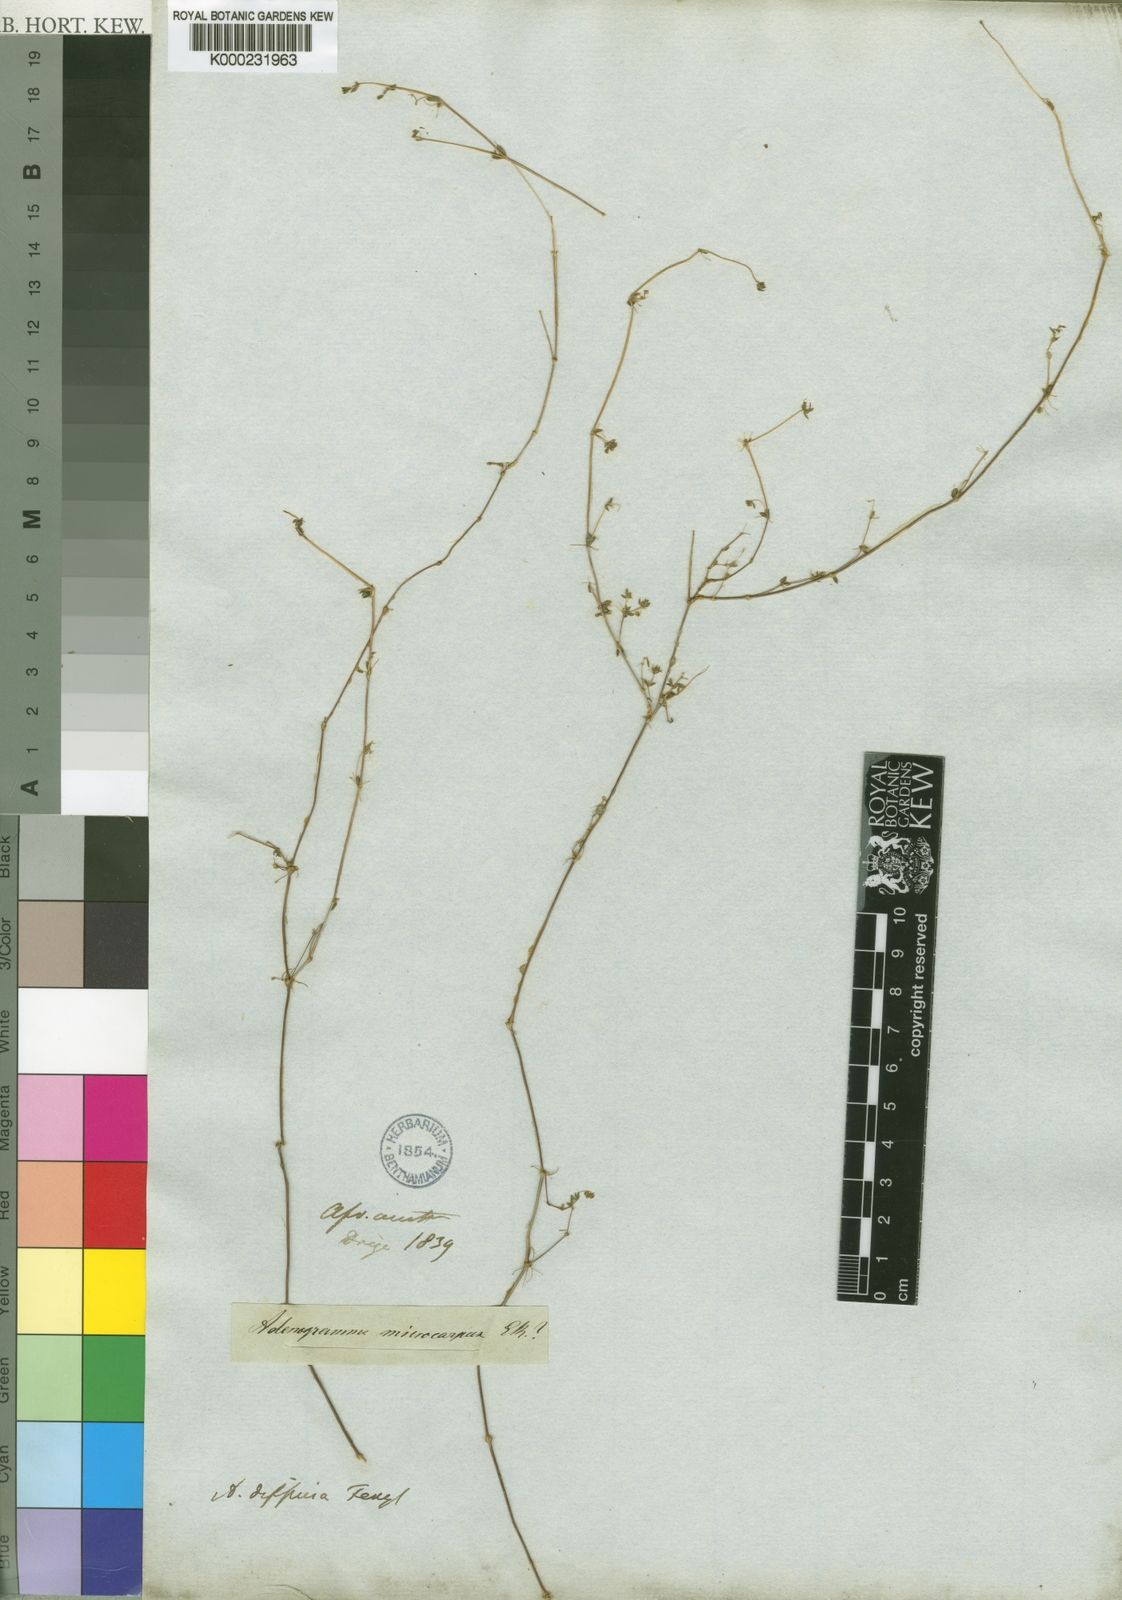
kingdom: Plantae
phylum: Tracheophyta
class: Magnoliopsida
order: Caryophyllales
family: Molluginaceae
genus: Adenogramma
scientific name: Adenogramma lichtensteiniana
